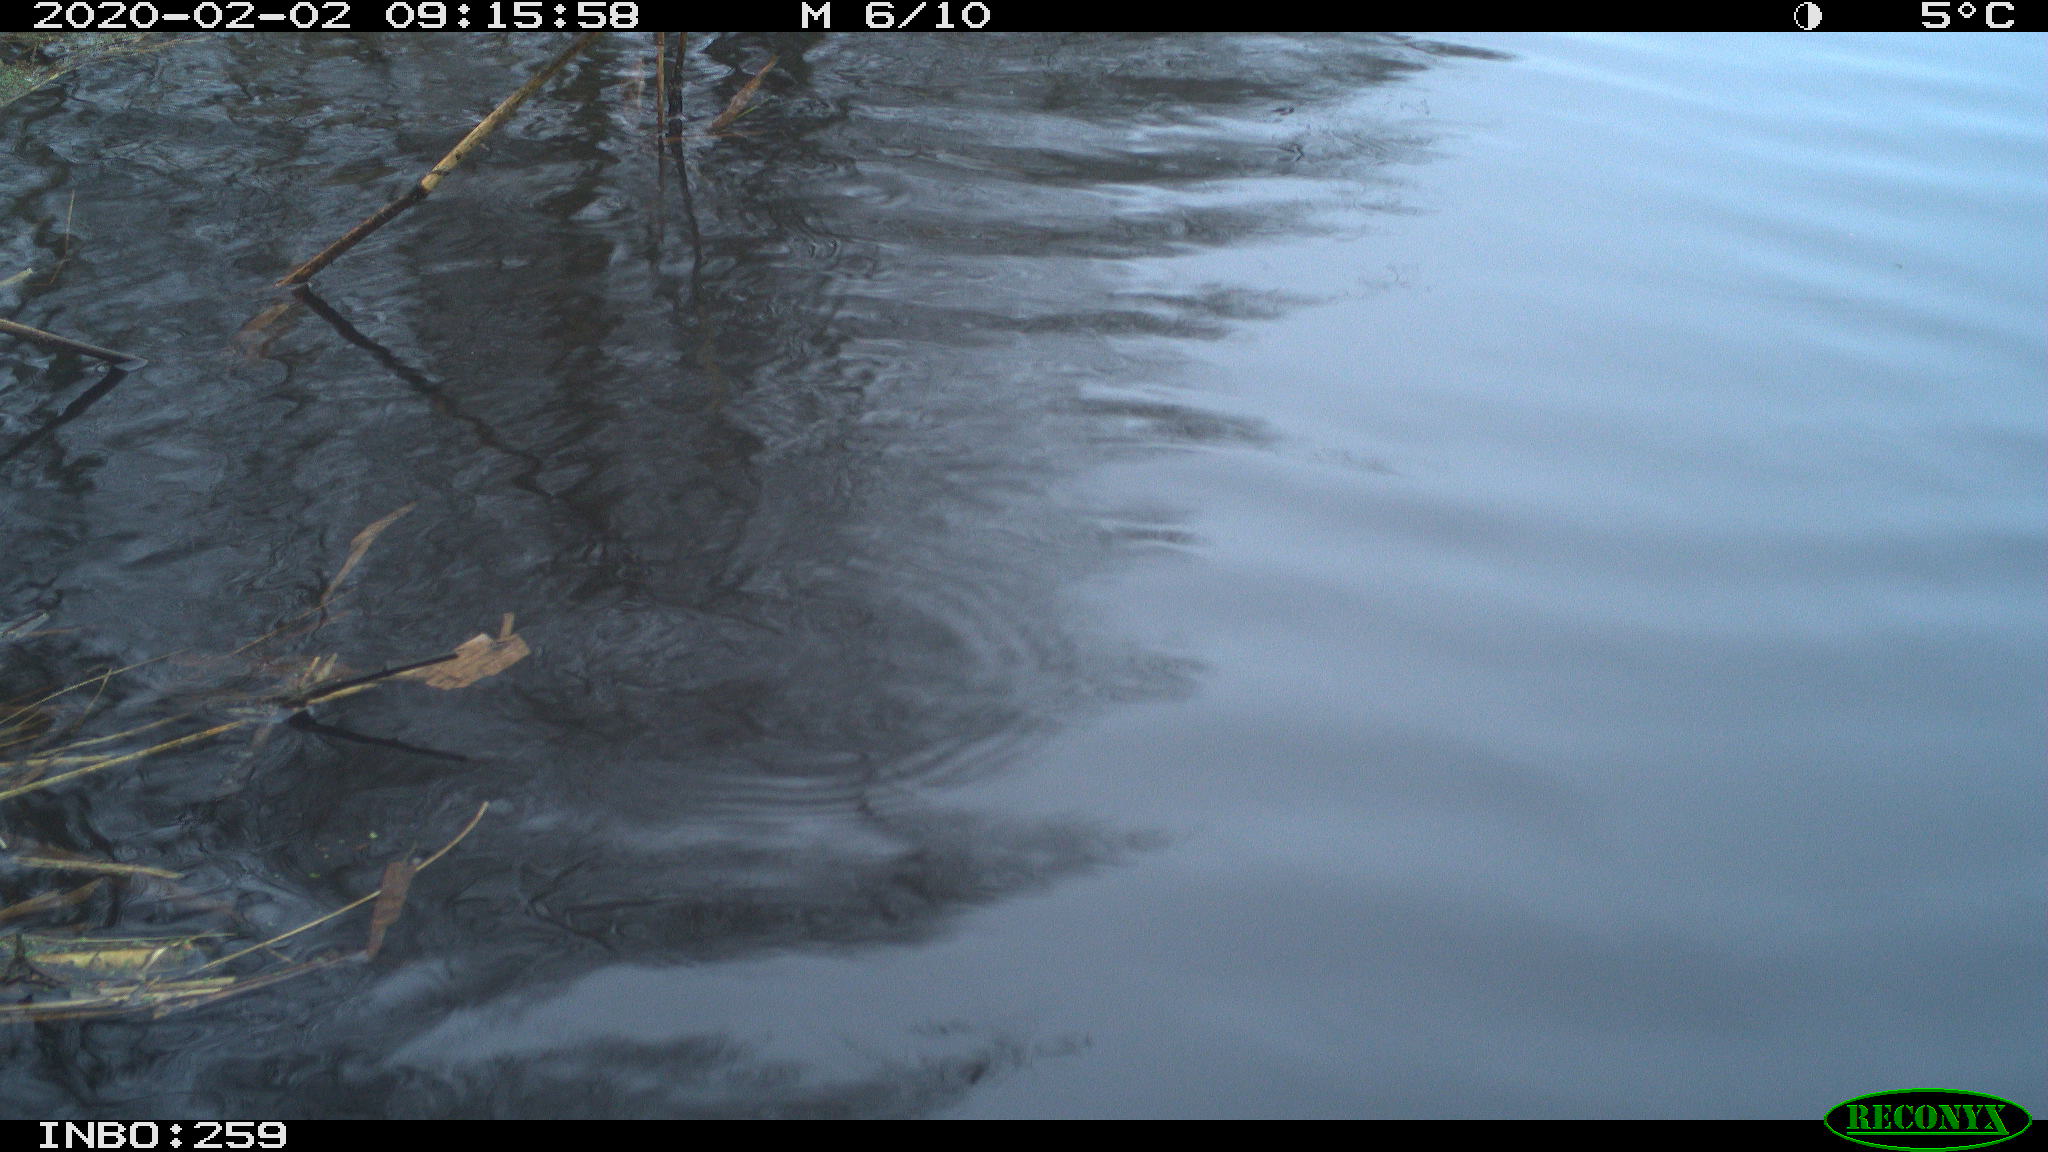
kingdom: Animalia
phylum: Chordata
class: Aves
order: Gruiformes
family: Rallidae
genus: Gallinula
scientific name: Gallinula chloropus
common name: Common moorhen
